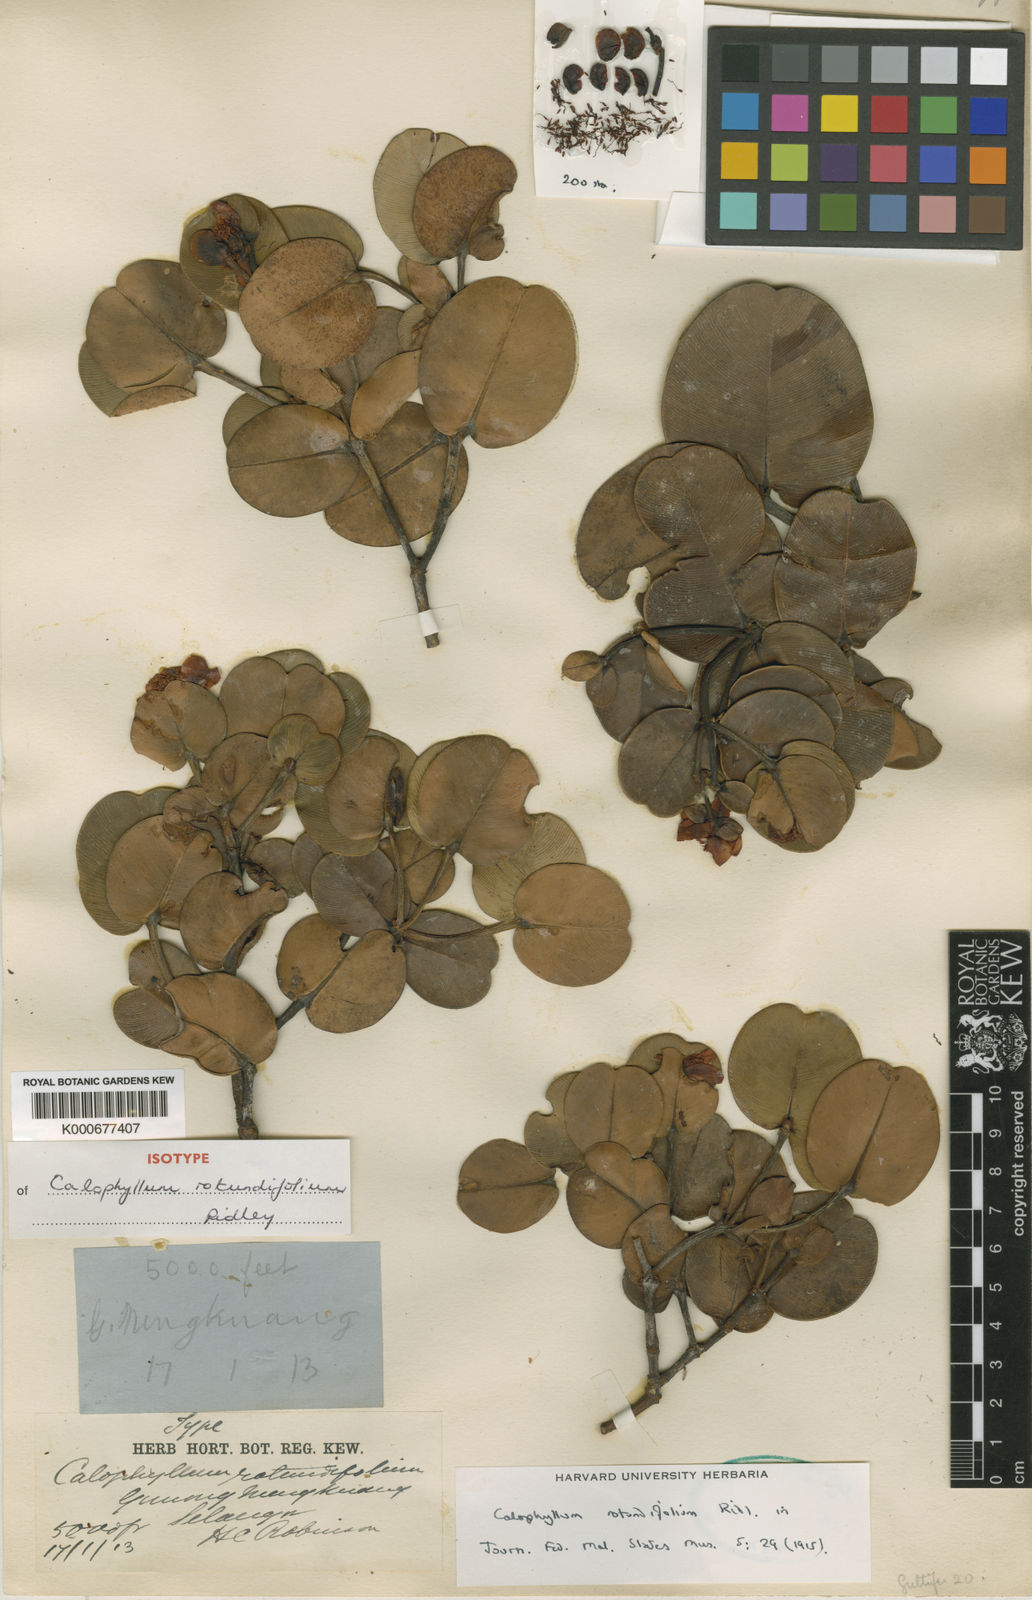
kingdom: Plantae
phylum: Tracheophyta
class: Magnoliopsida
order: Malpighiales
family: Calophyllaceae
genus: Calophyllum
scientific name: Calophyllum rotundifolium
